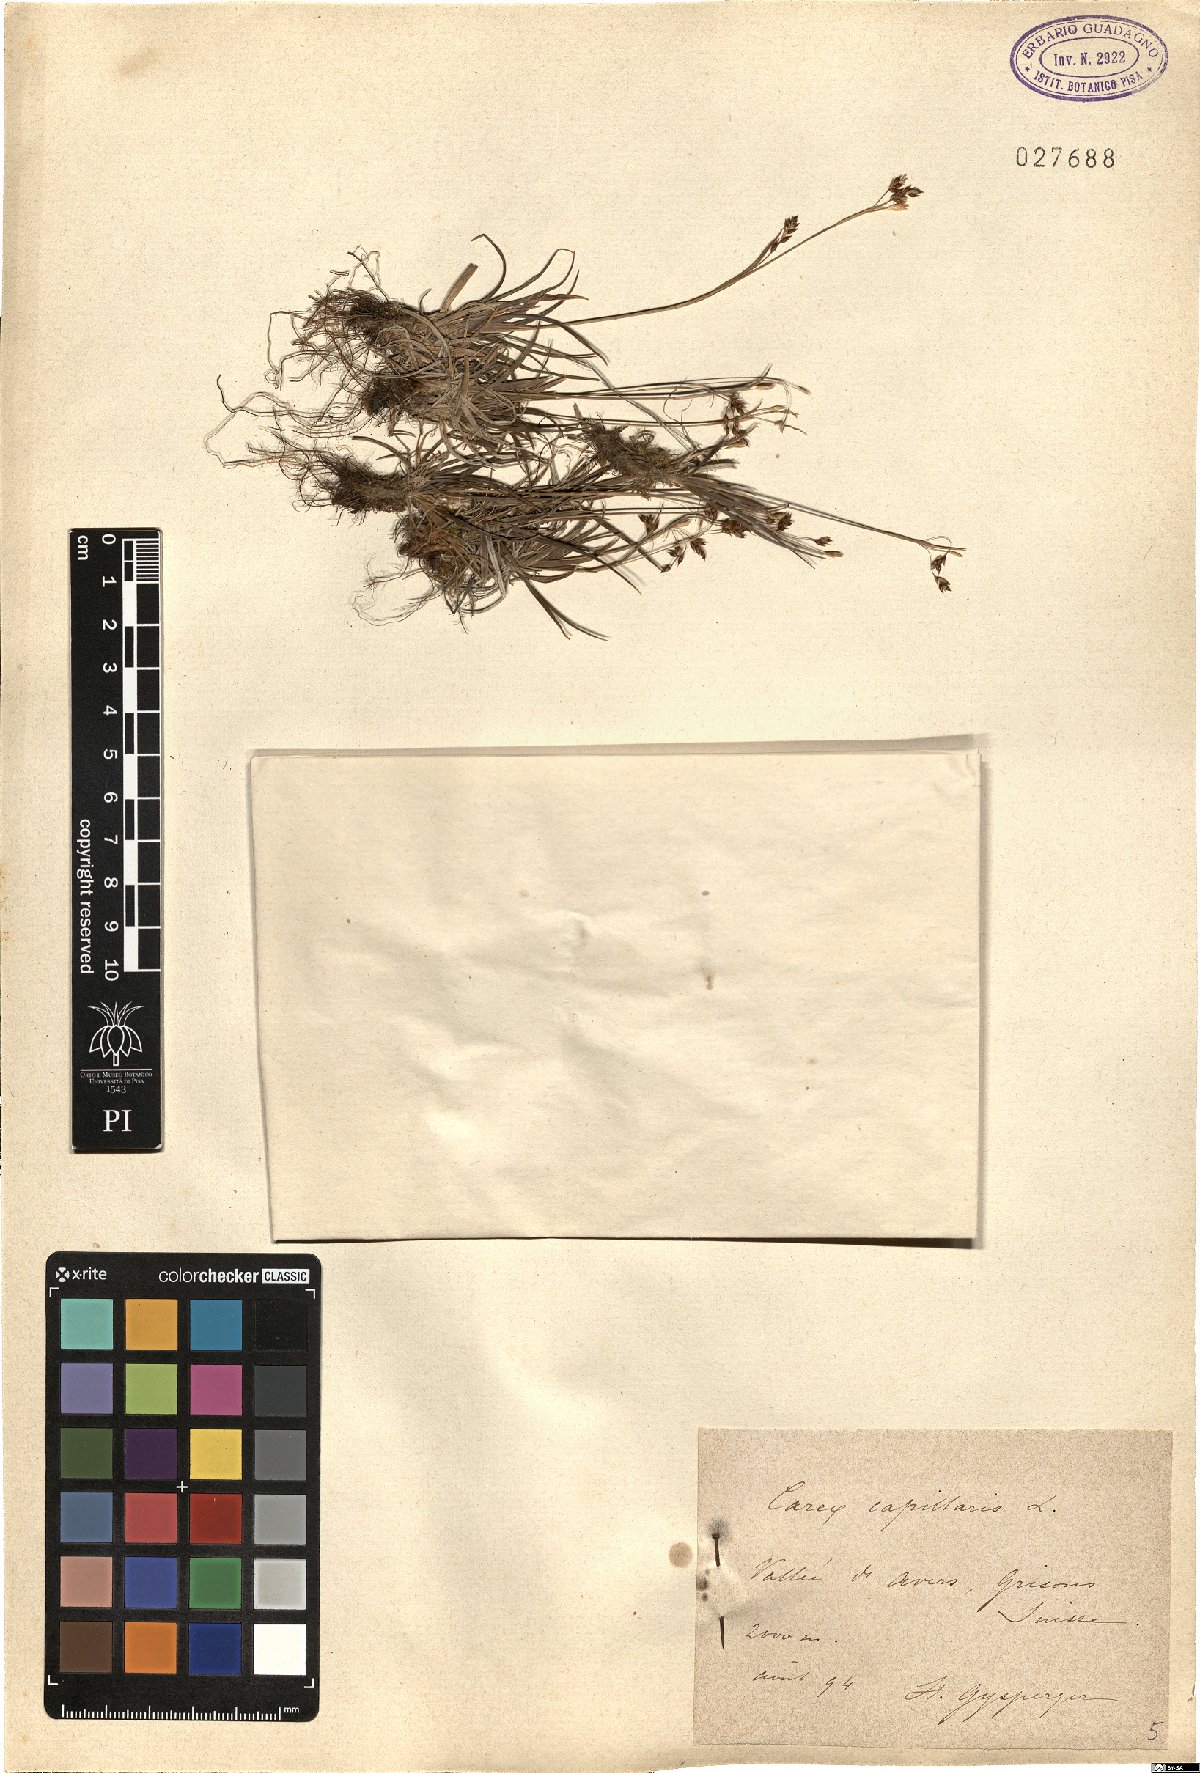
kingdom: Plantae
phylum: Tracheophyta
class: Liliopsida
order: Poales
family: Cyperaceae
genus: Carex
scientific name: Carex capillaris
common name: Hair sedge
